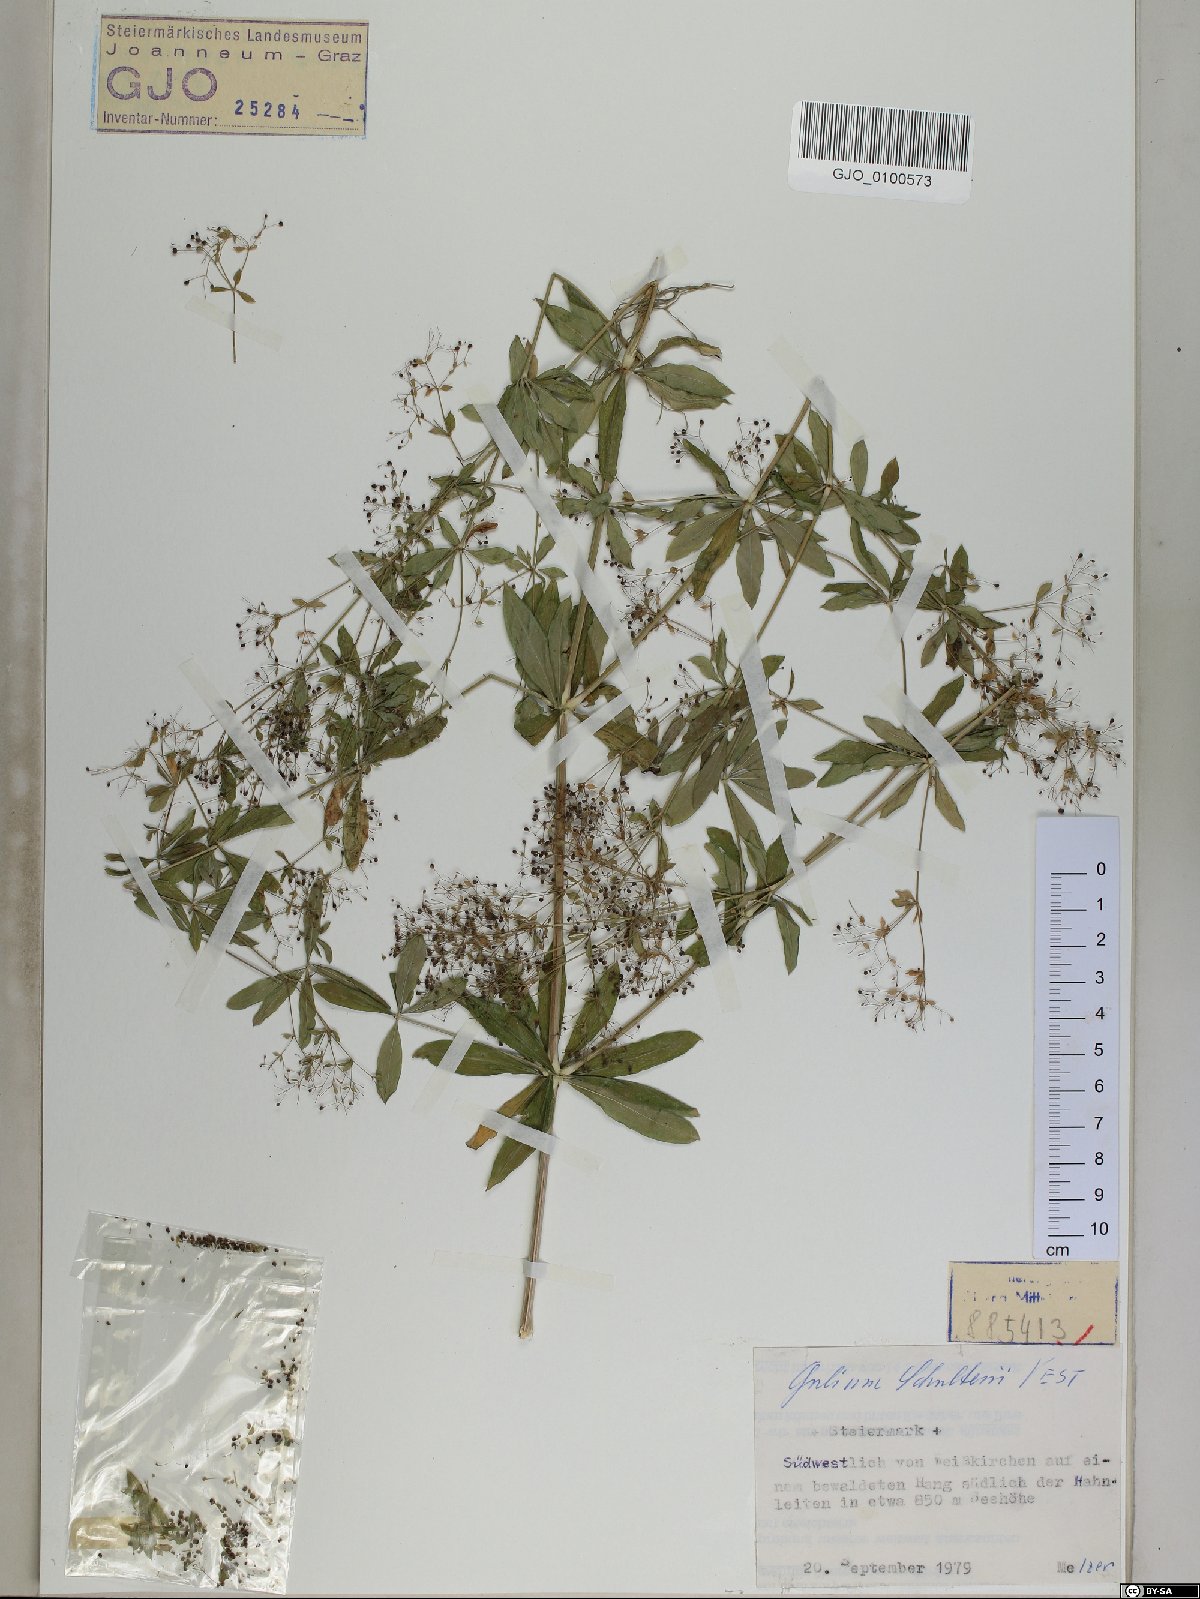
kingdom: Plantae
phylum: Tracheophyta
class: Magnoliopsida
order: Gentianales
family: Rubiaceae
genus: Galium
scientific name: Galium intermedium
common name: Bedstraw
